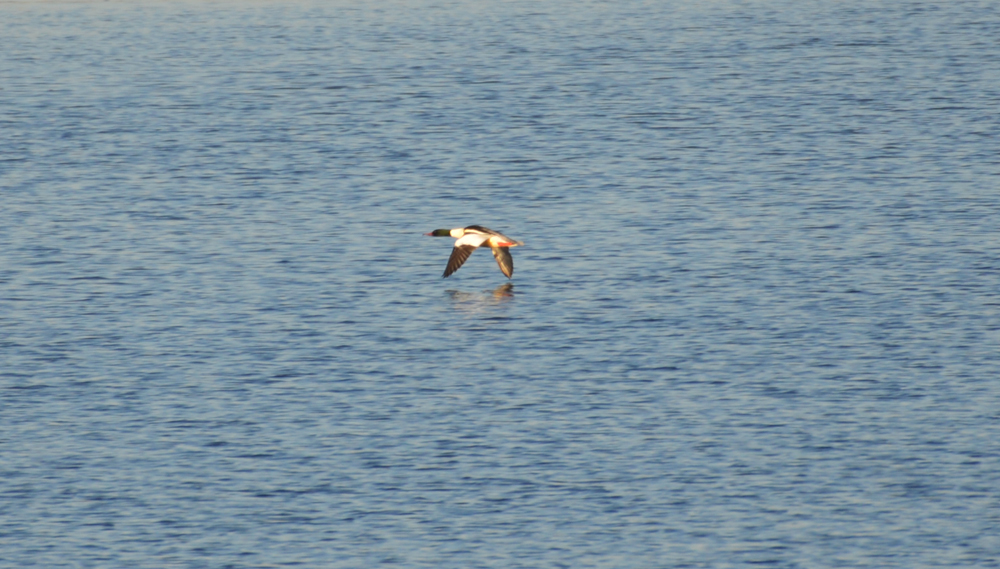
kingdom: Animalia
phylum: Chordata
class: Aves
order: Anseriformes
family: Anatidae
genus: Mergus
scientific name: Mergus merganser
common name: Common merganser
